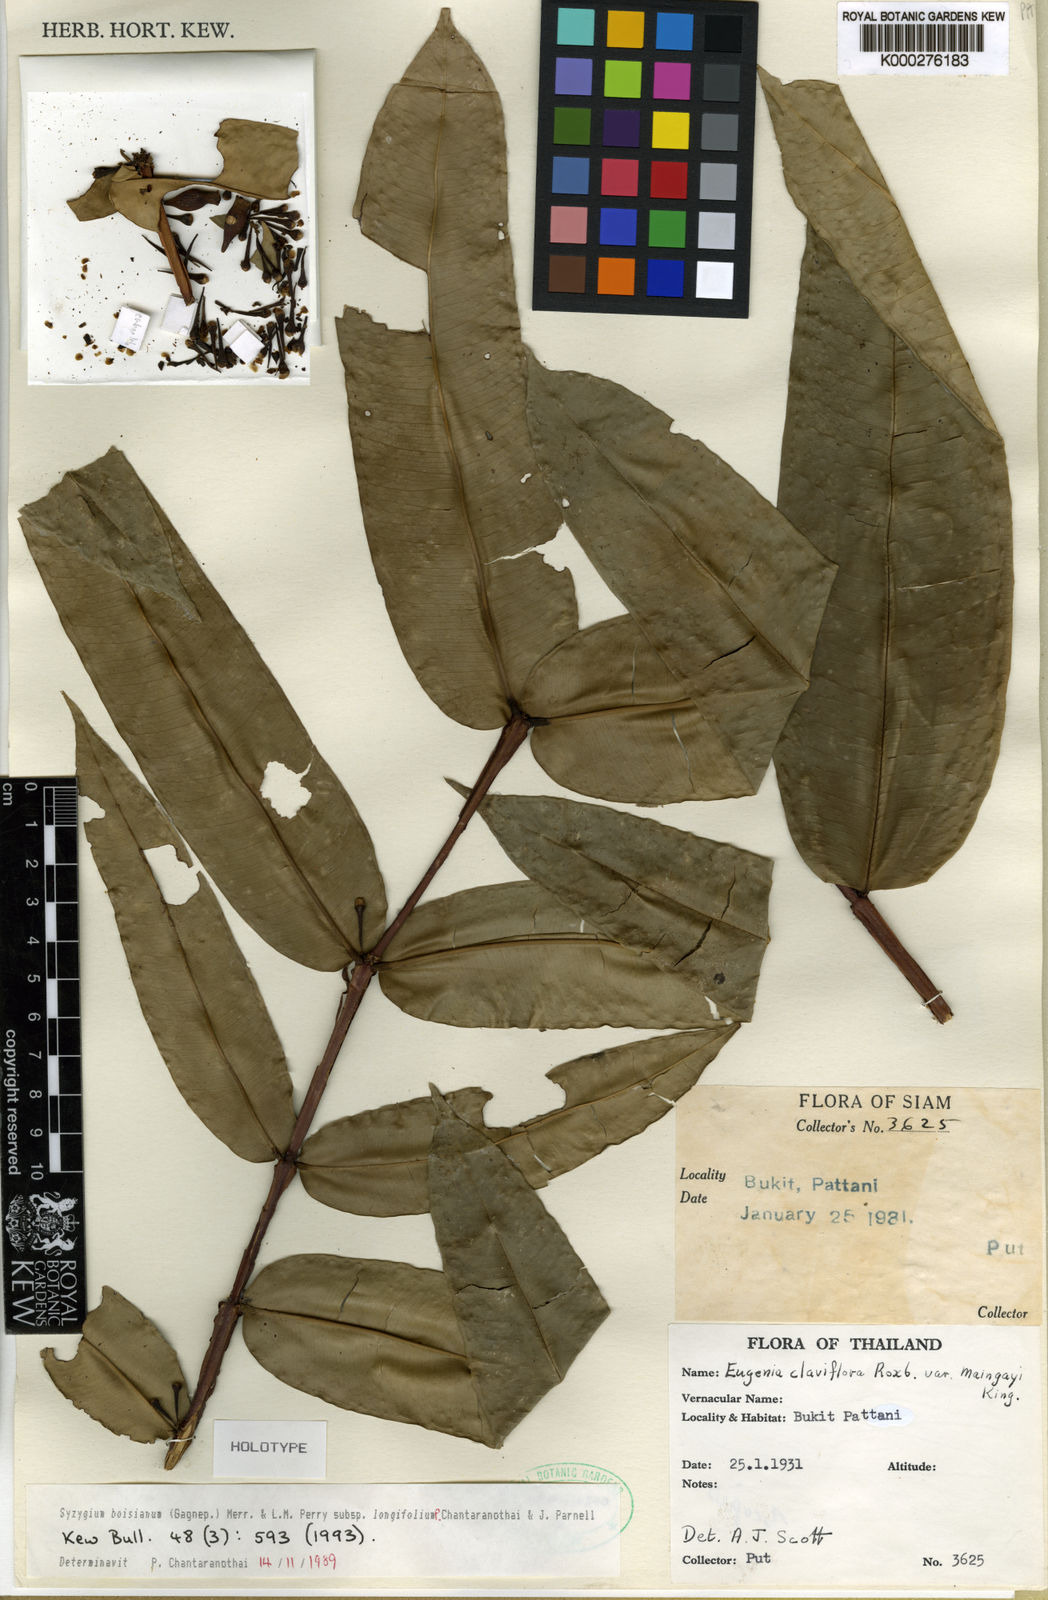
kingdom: Plantae
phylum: Tracheophyta
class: Magnoliopsida
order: Myrtales
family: Myrtaceae
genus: Syzygium
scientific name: Syzygium boisianum
